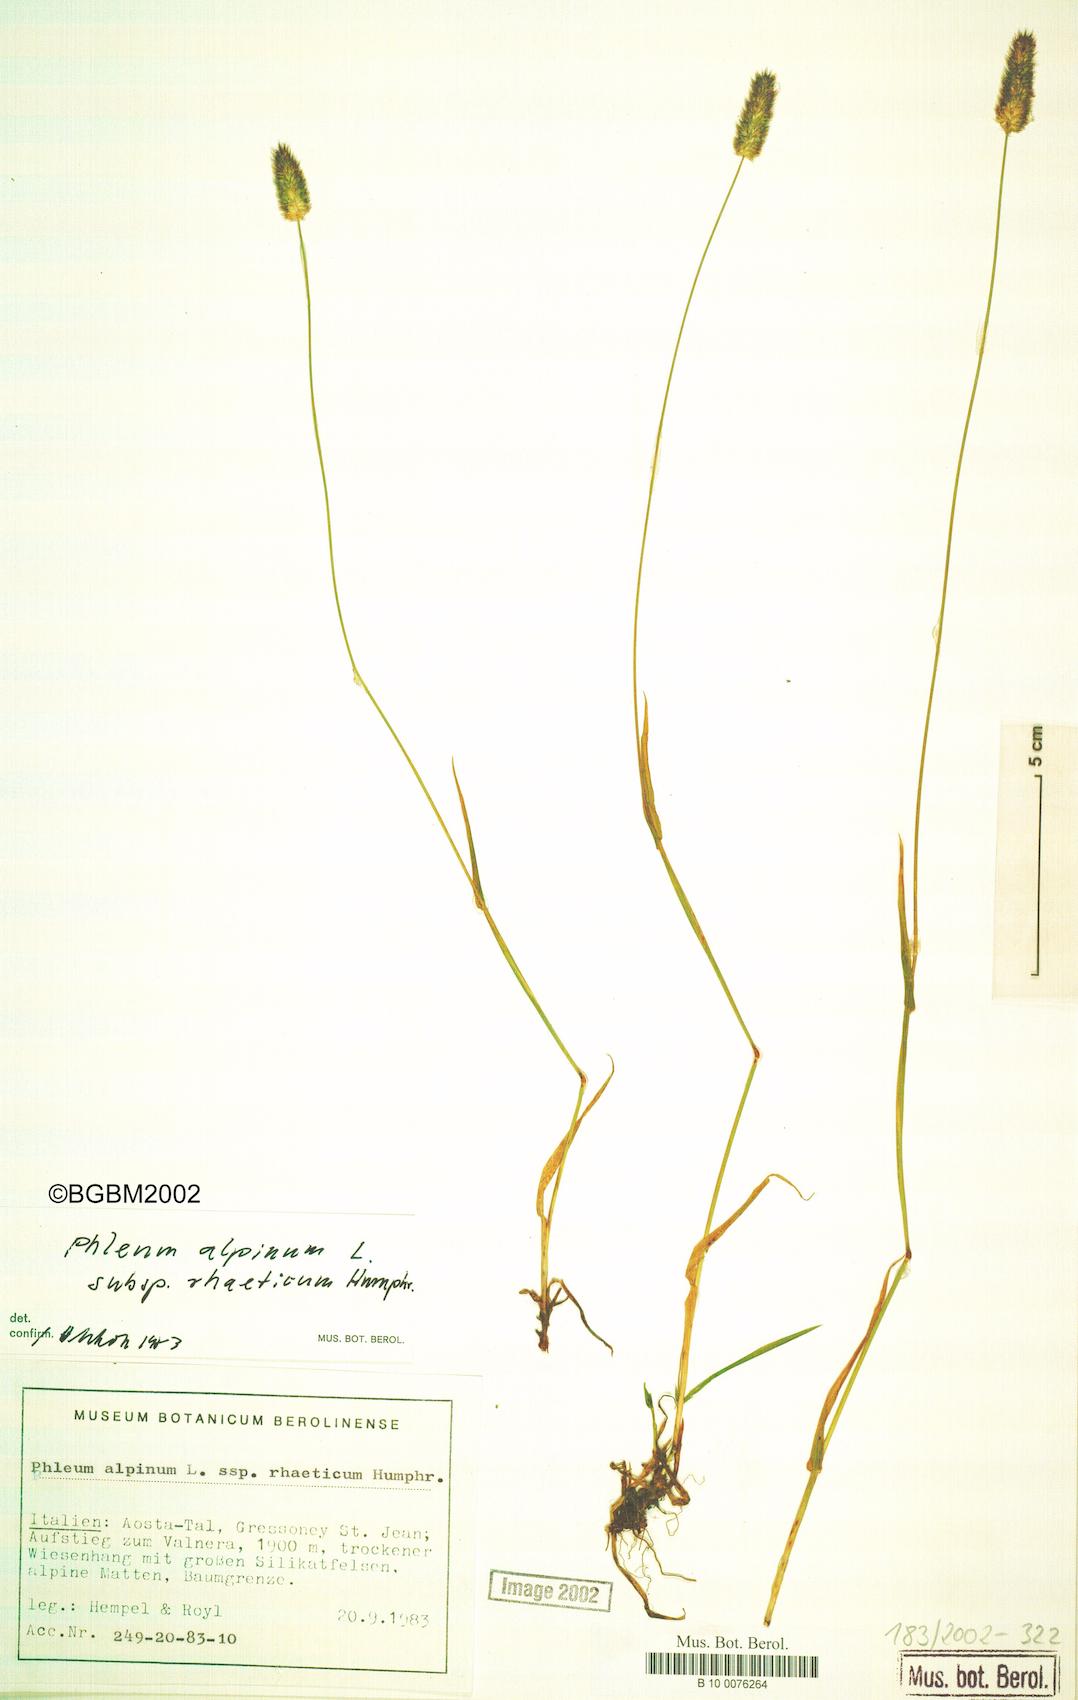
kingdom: Plantae
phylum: Tracheophyta
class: Liliopsida
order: Poales
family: Poaceae
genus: Phleum
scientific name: Phleum alpinum
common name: Alpine cat's-tail
